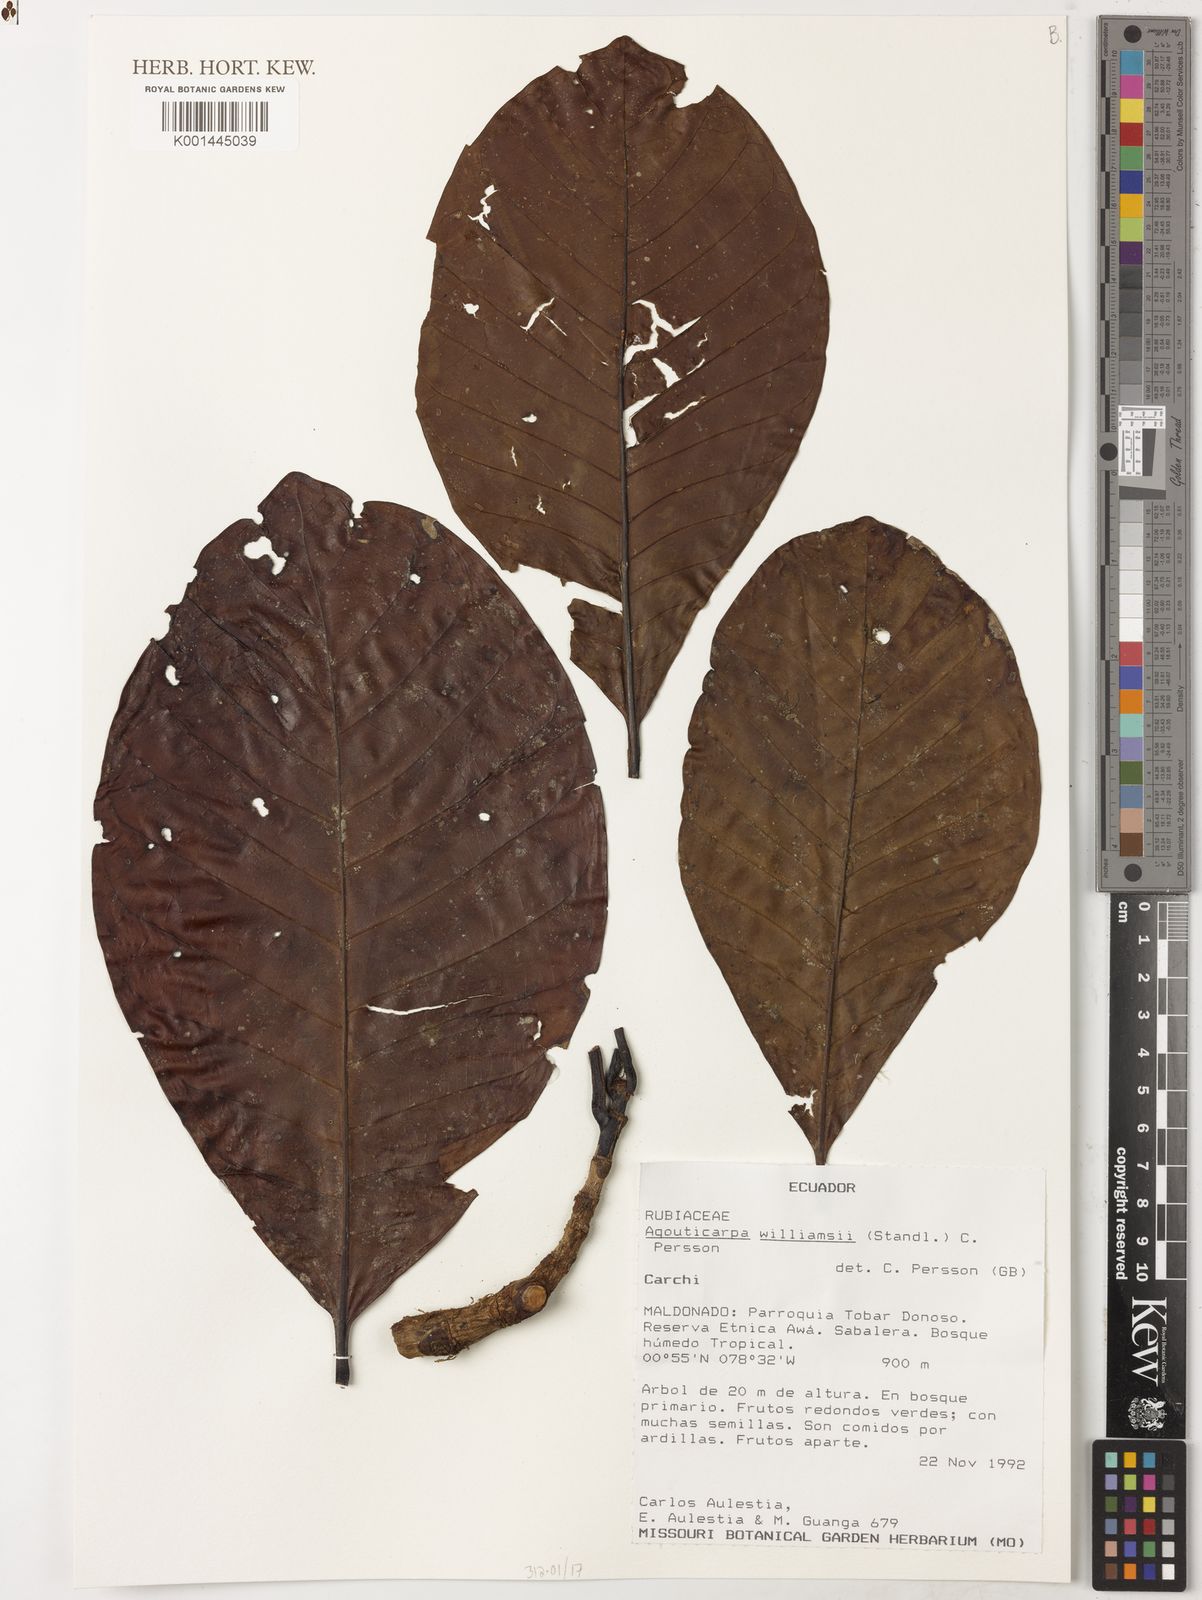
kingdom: Plantae
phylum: Tracheophyta
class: Magnoliopsida
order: Gentianales
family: Rubiaceae
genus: Agouticarpa
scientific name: Agouticarpa williamsii
